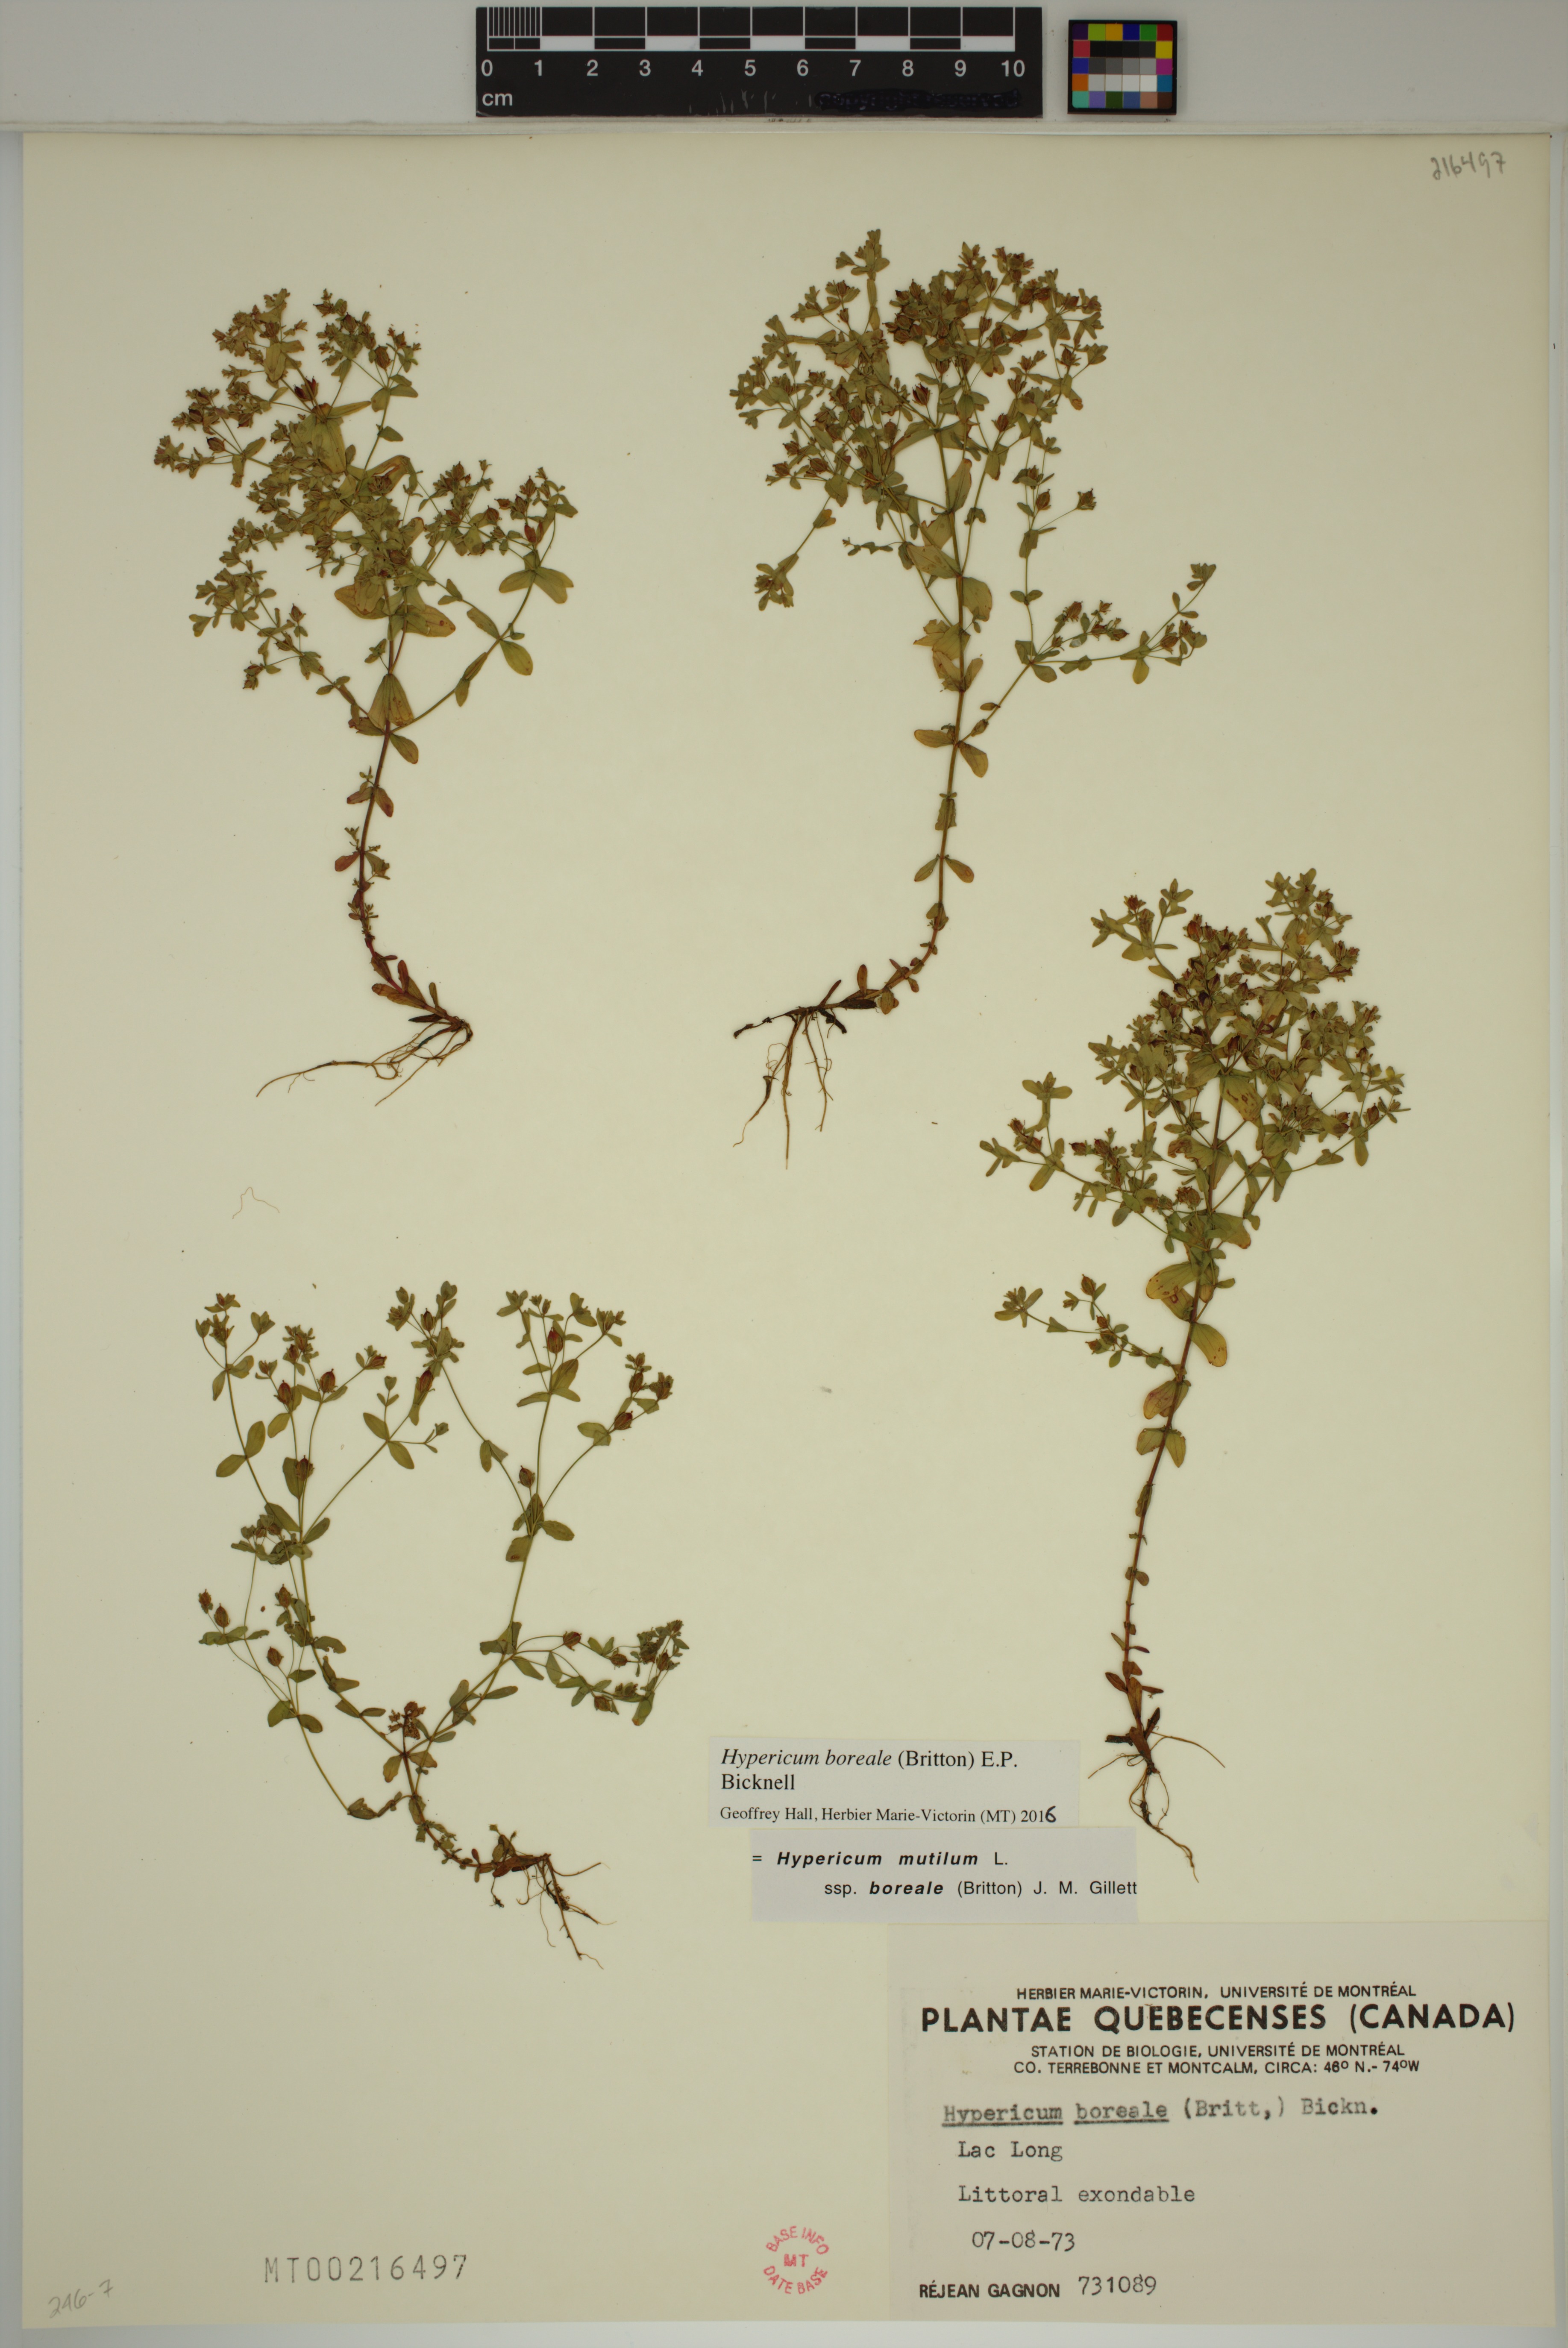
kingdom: Plantae
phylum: Tracheophyta
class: Magnoliopsida
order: Malpighiales
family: Hypericaceae
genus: Hypericum
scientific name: Hypericum boreale
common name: Northern bog st. john's-wort
